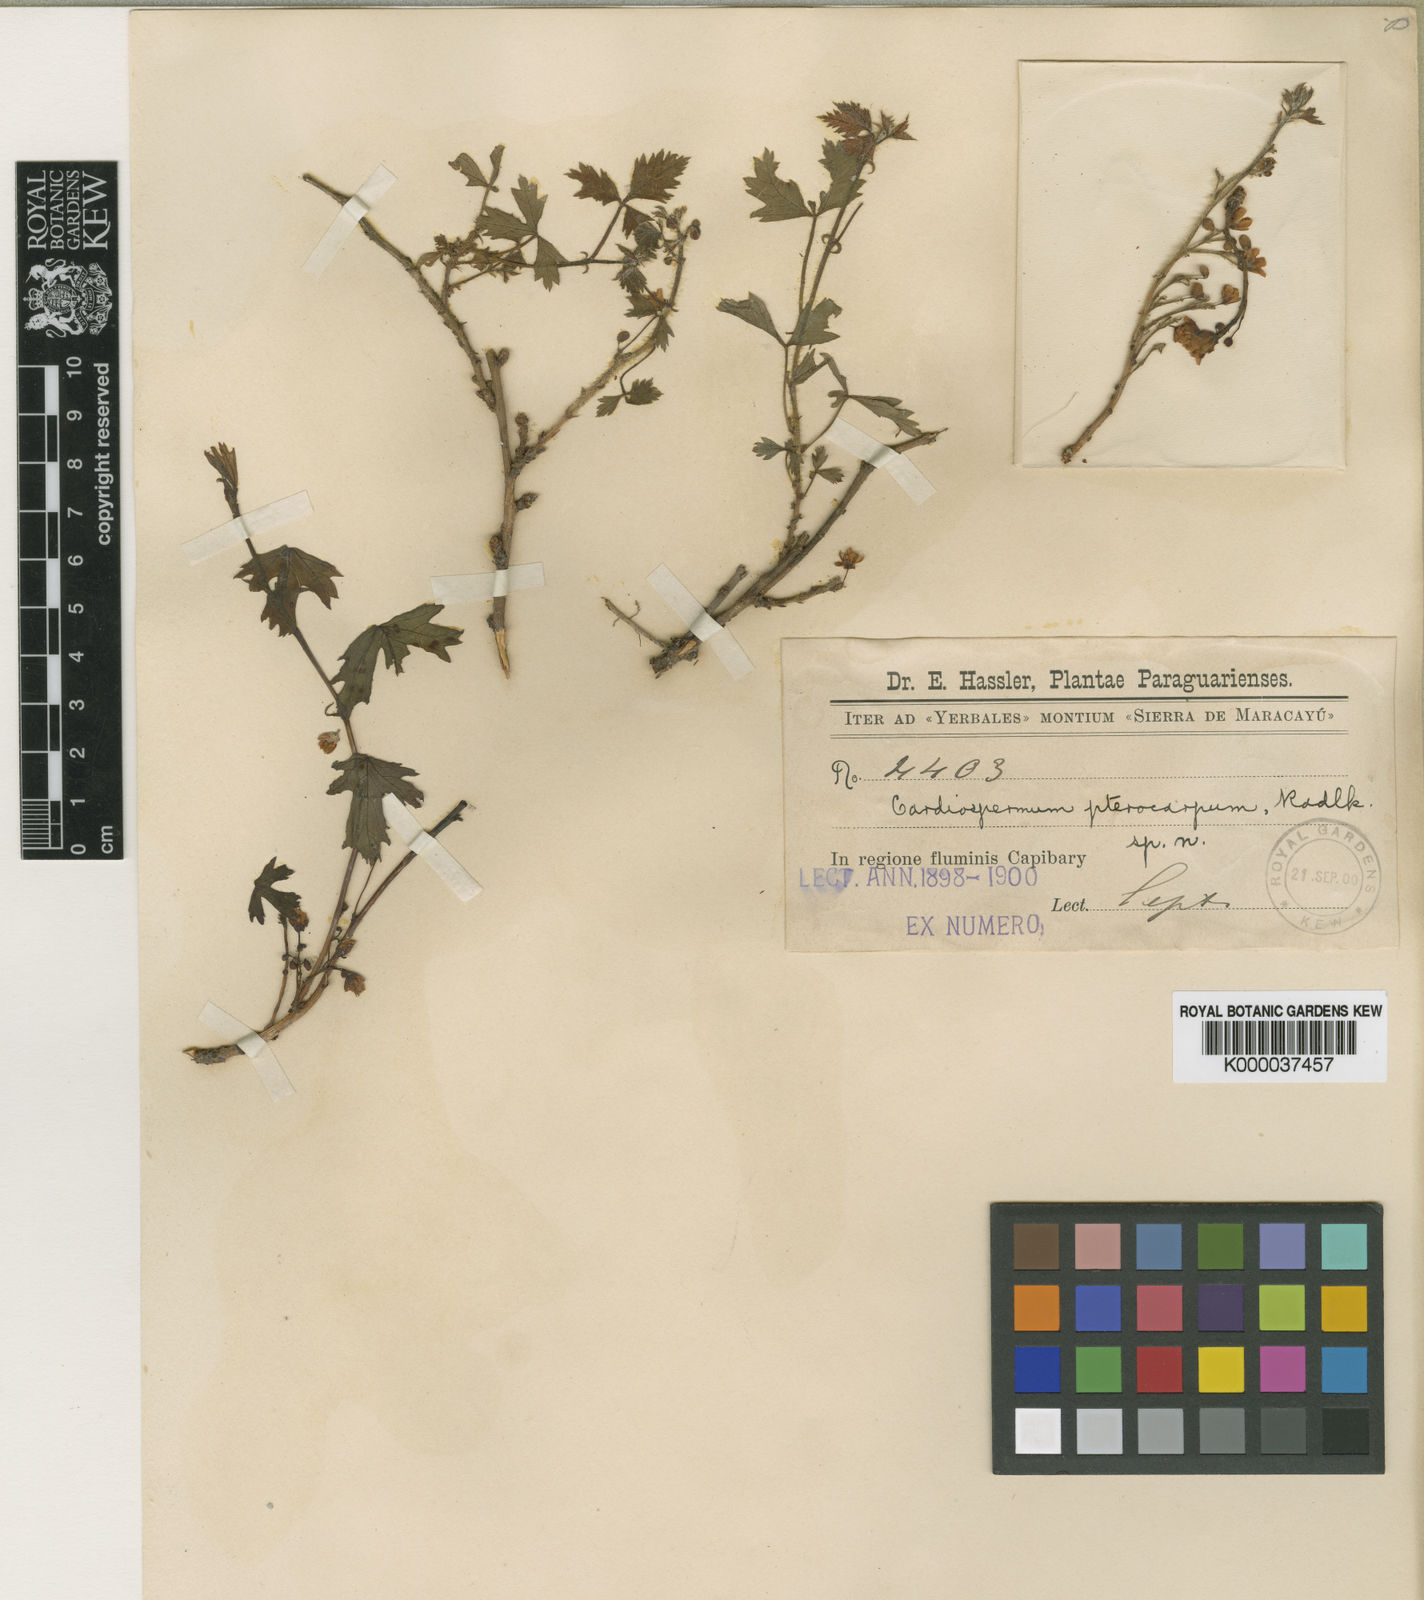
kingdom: Plantae
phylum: Tracheophyta
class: Magnoliopsida
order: Sapindales
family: Sapindaceae
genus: Urvillea
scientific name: Urvillea pterocarpa
